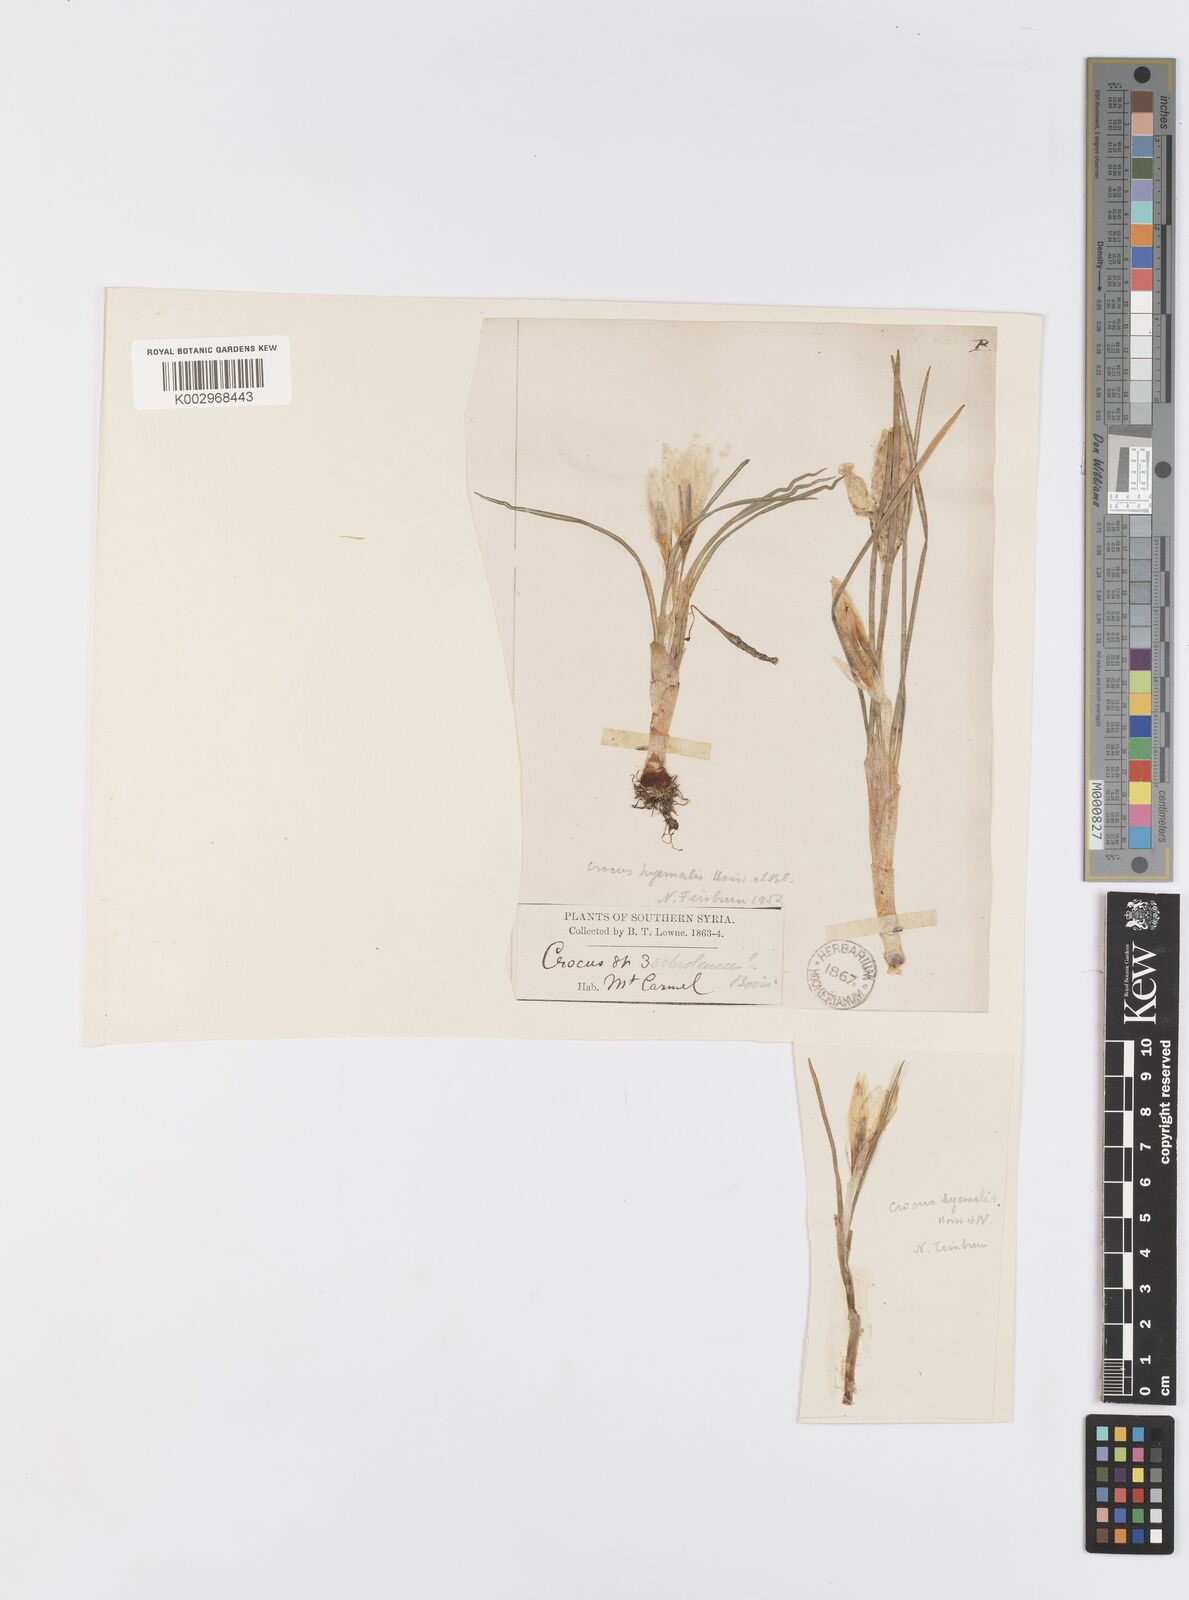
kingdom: Plantae
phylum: Tracheophyta
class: Liliopsida
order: Asparagales
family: Iridaceae
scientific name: Iridaceae
